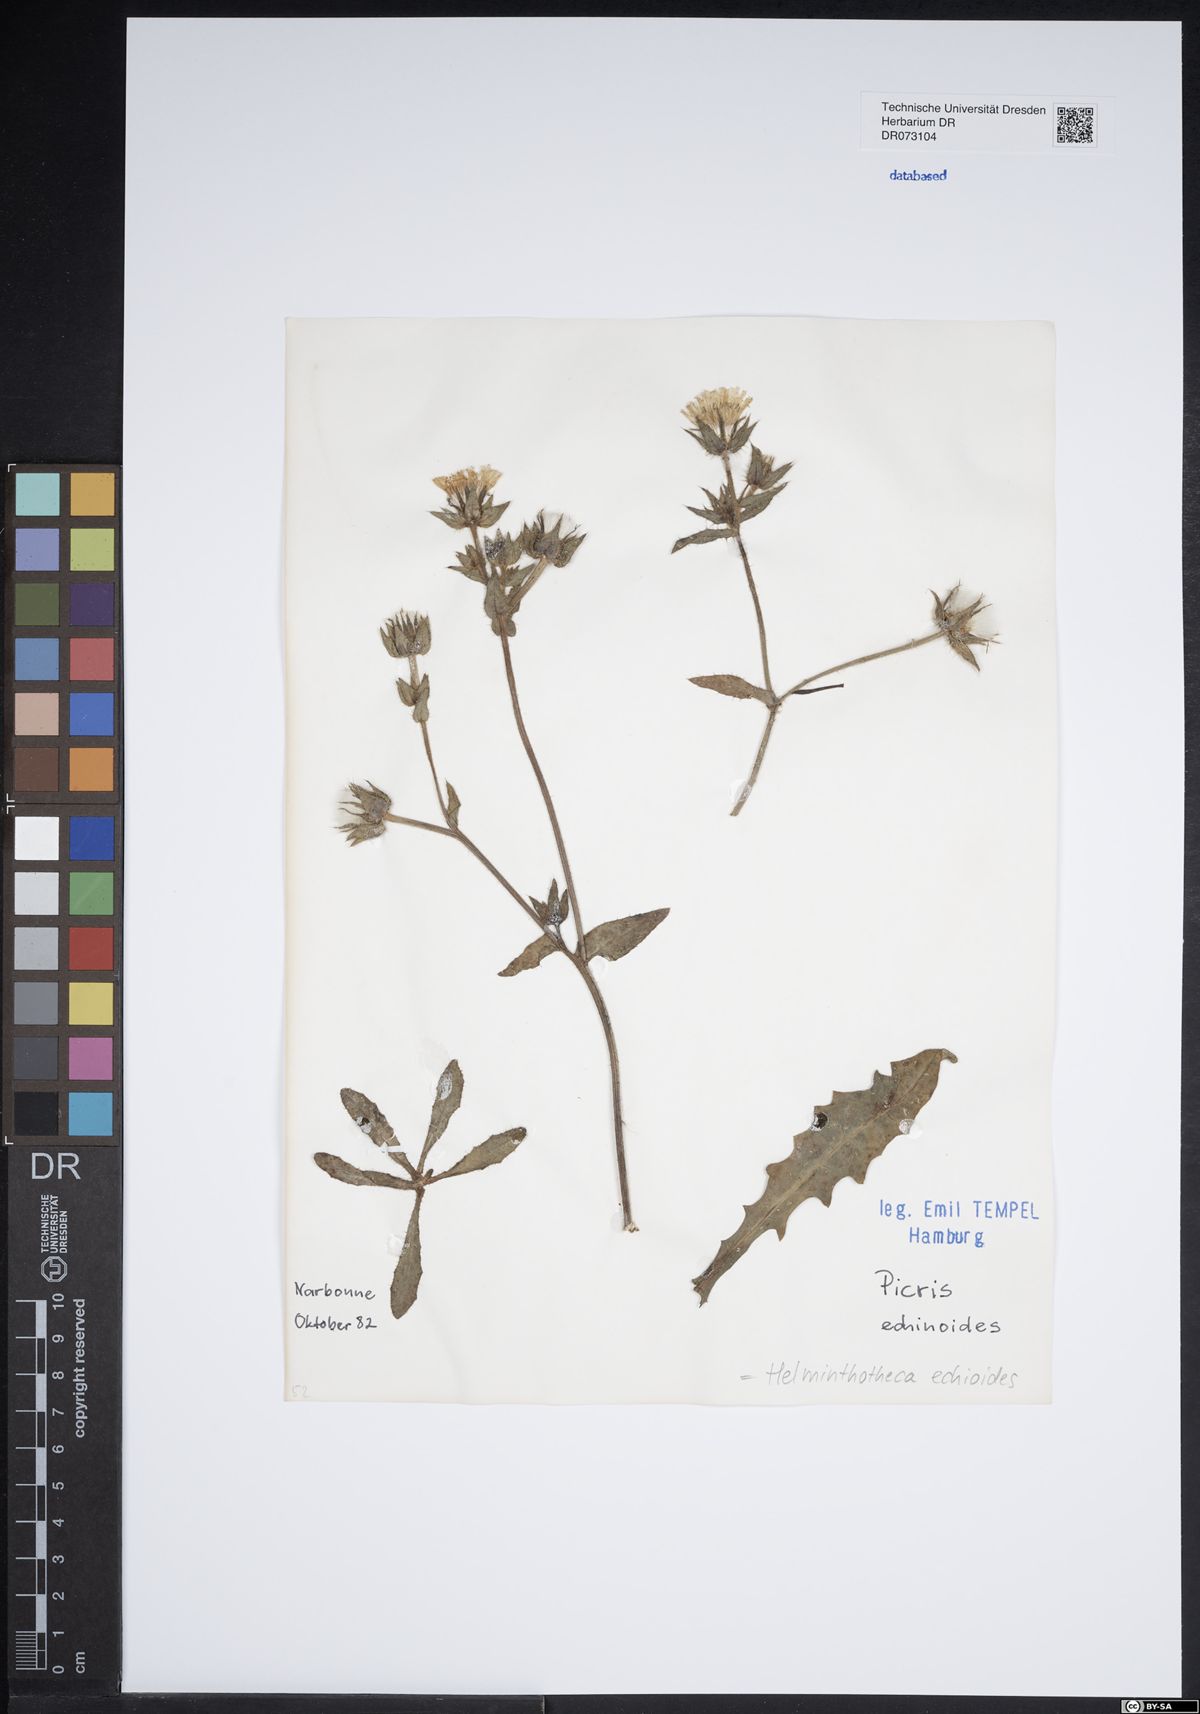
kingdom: Plantae
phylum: Tracheophyta
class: Magnoliopsida
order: Asterales
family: Asteraceae
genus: Helminthotheca
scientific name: Helminthotheca echioides
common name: Ox-tongue
